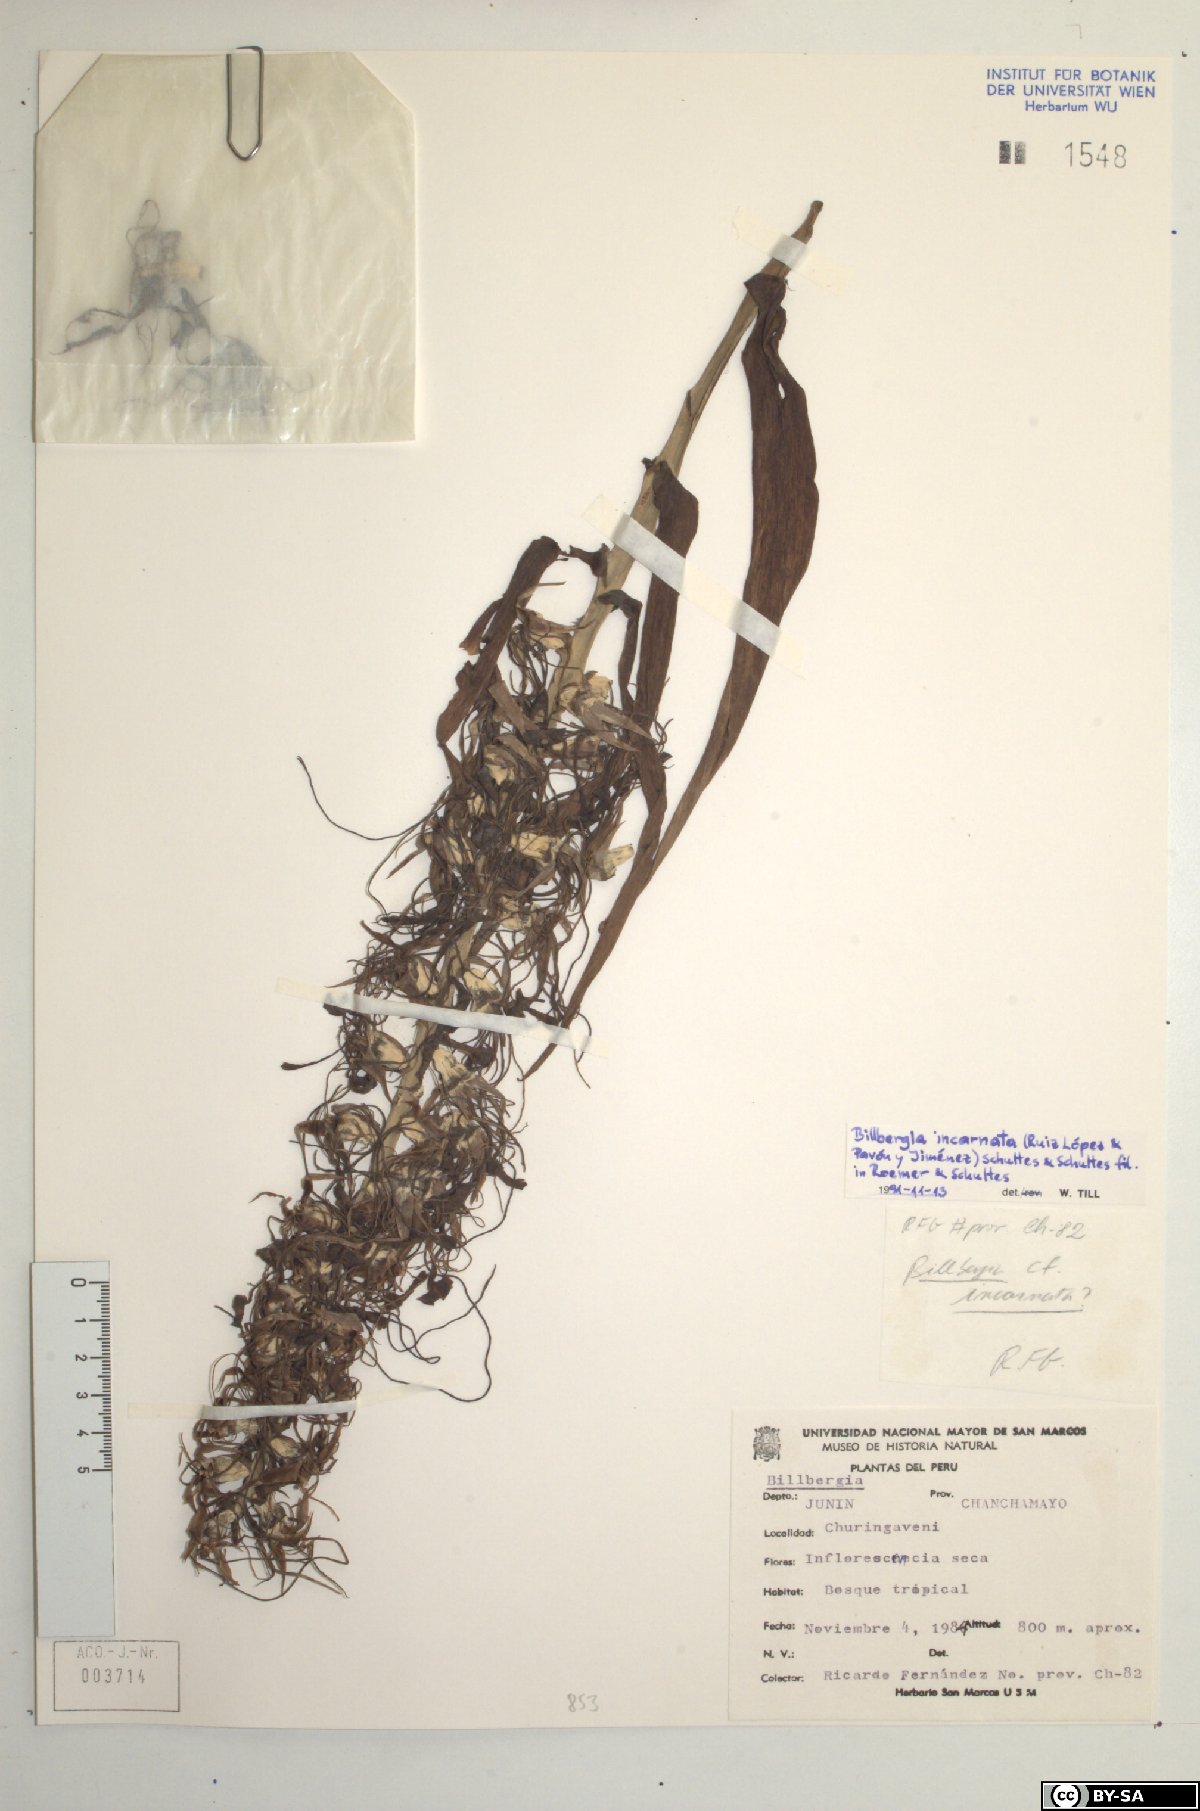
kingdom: Plantae
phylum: Tracheophyta
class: Liliopsida
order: Poales
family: Bromeliaceae
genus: Billbergia
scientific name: Billbergia incarnata
